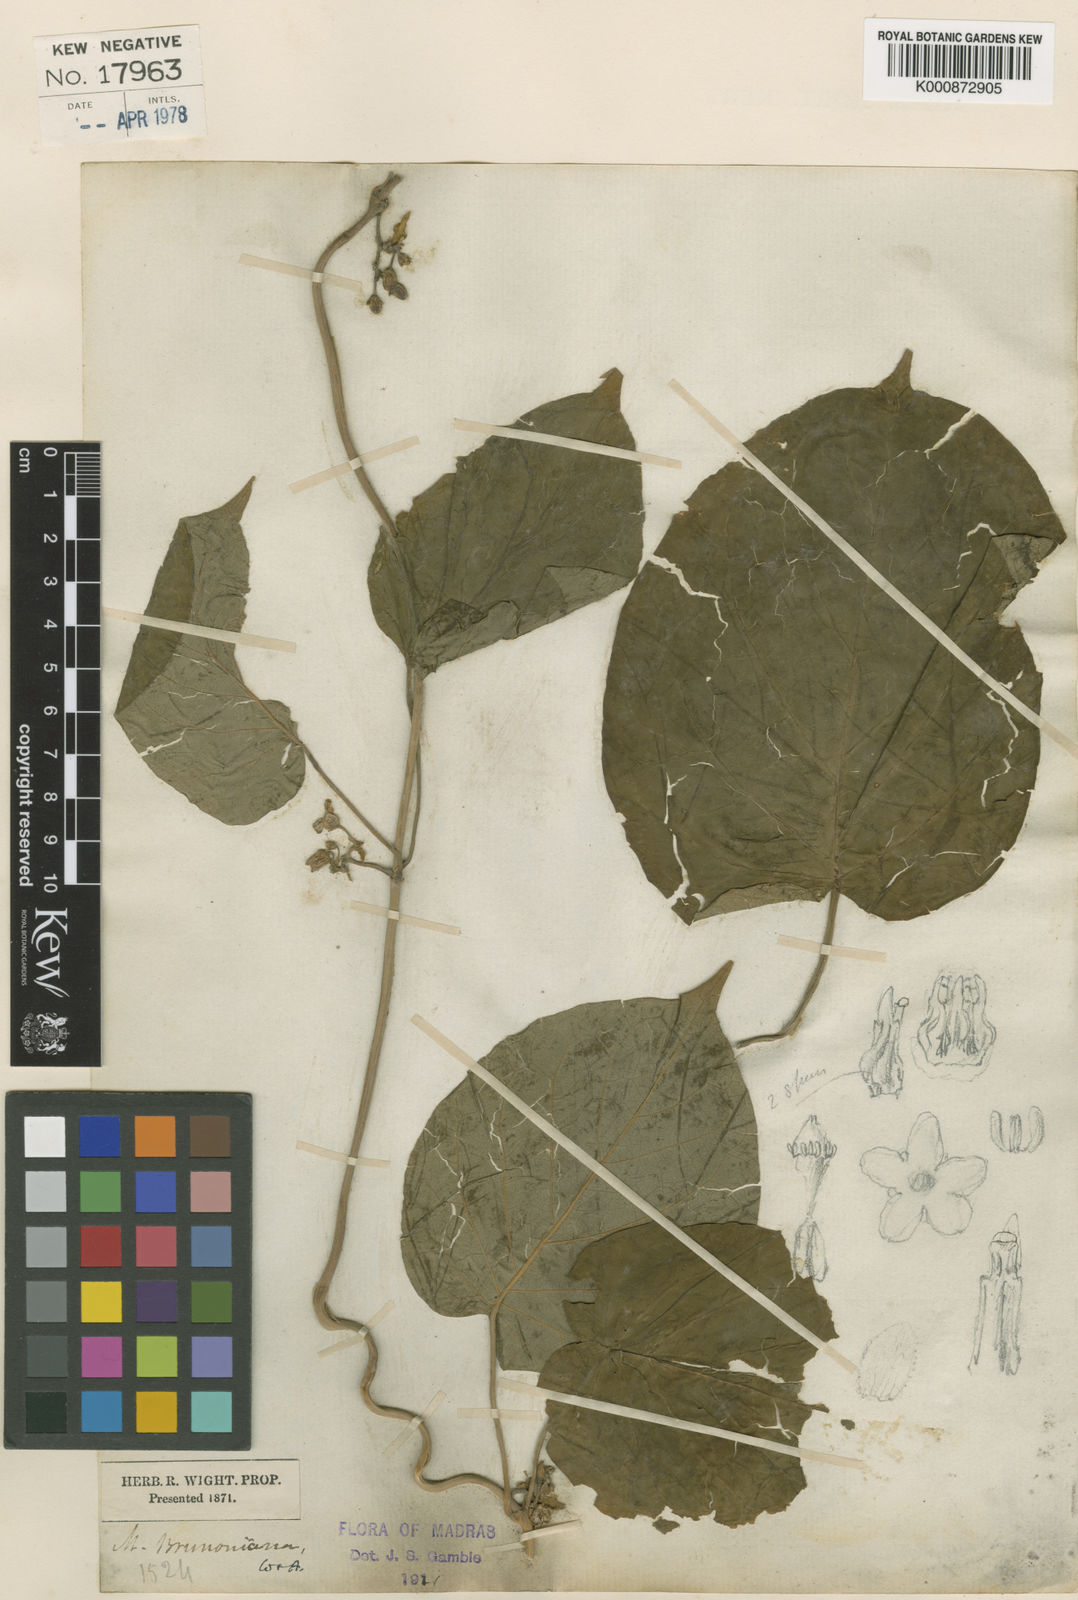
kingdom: Plantae
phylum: Tracheophyta
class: Magnoliopsida
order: Gentianales
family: Apocynaceae
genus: Marsdenia
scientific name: Marsdenia brunoniana
